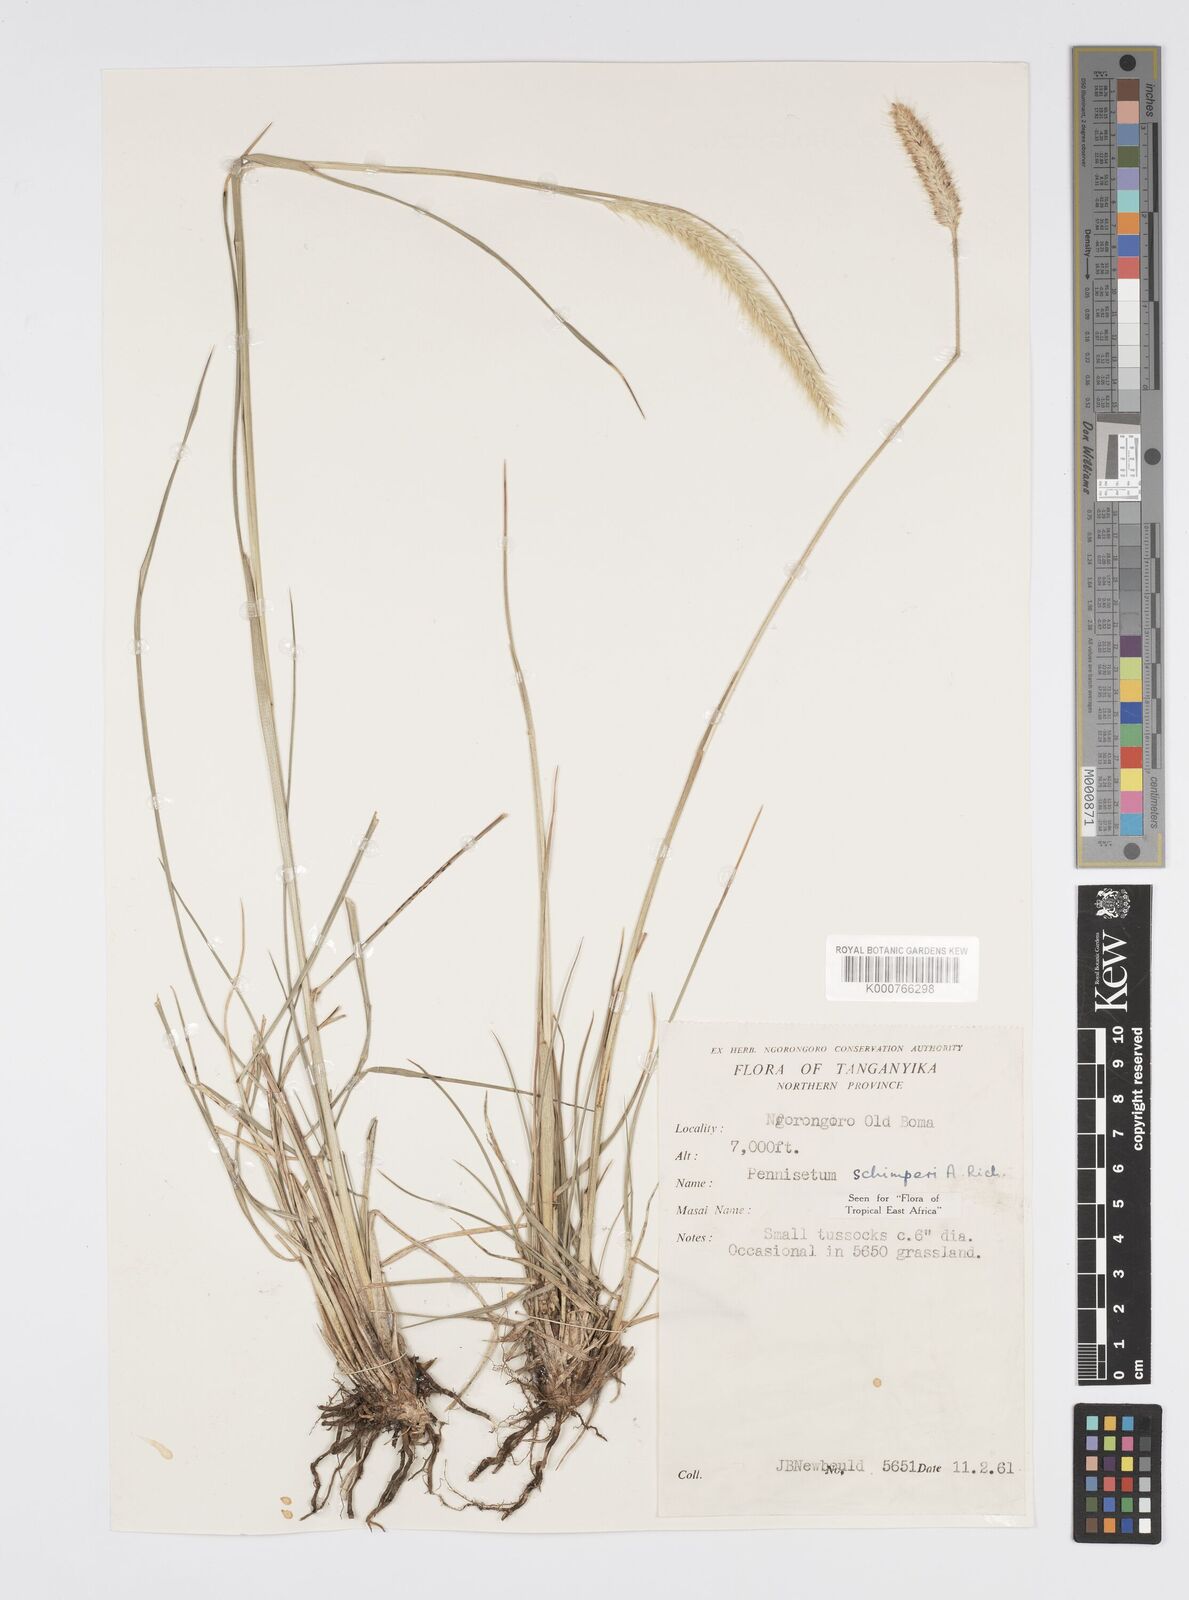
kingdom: Plantae
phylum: Tracheophyta
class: Liliopsida
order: Poales
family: Poaceae
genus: Cenchrus
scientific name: Cenchrus sphacelatus
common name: Bulgras
